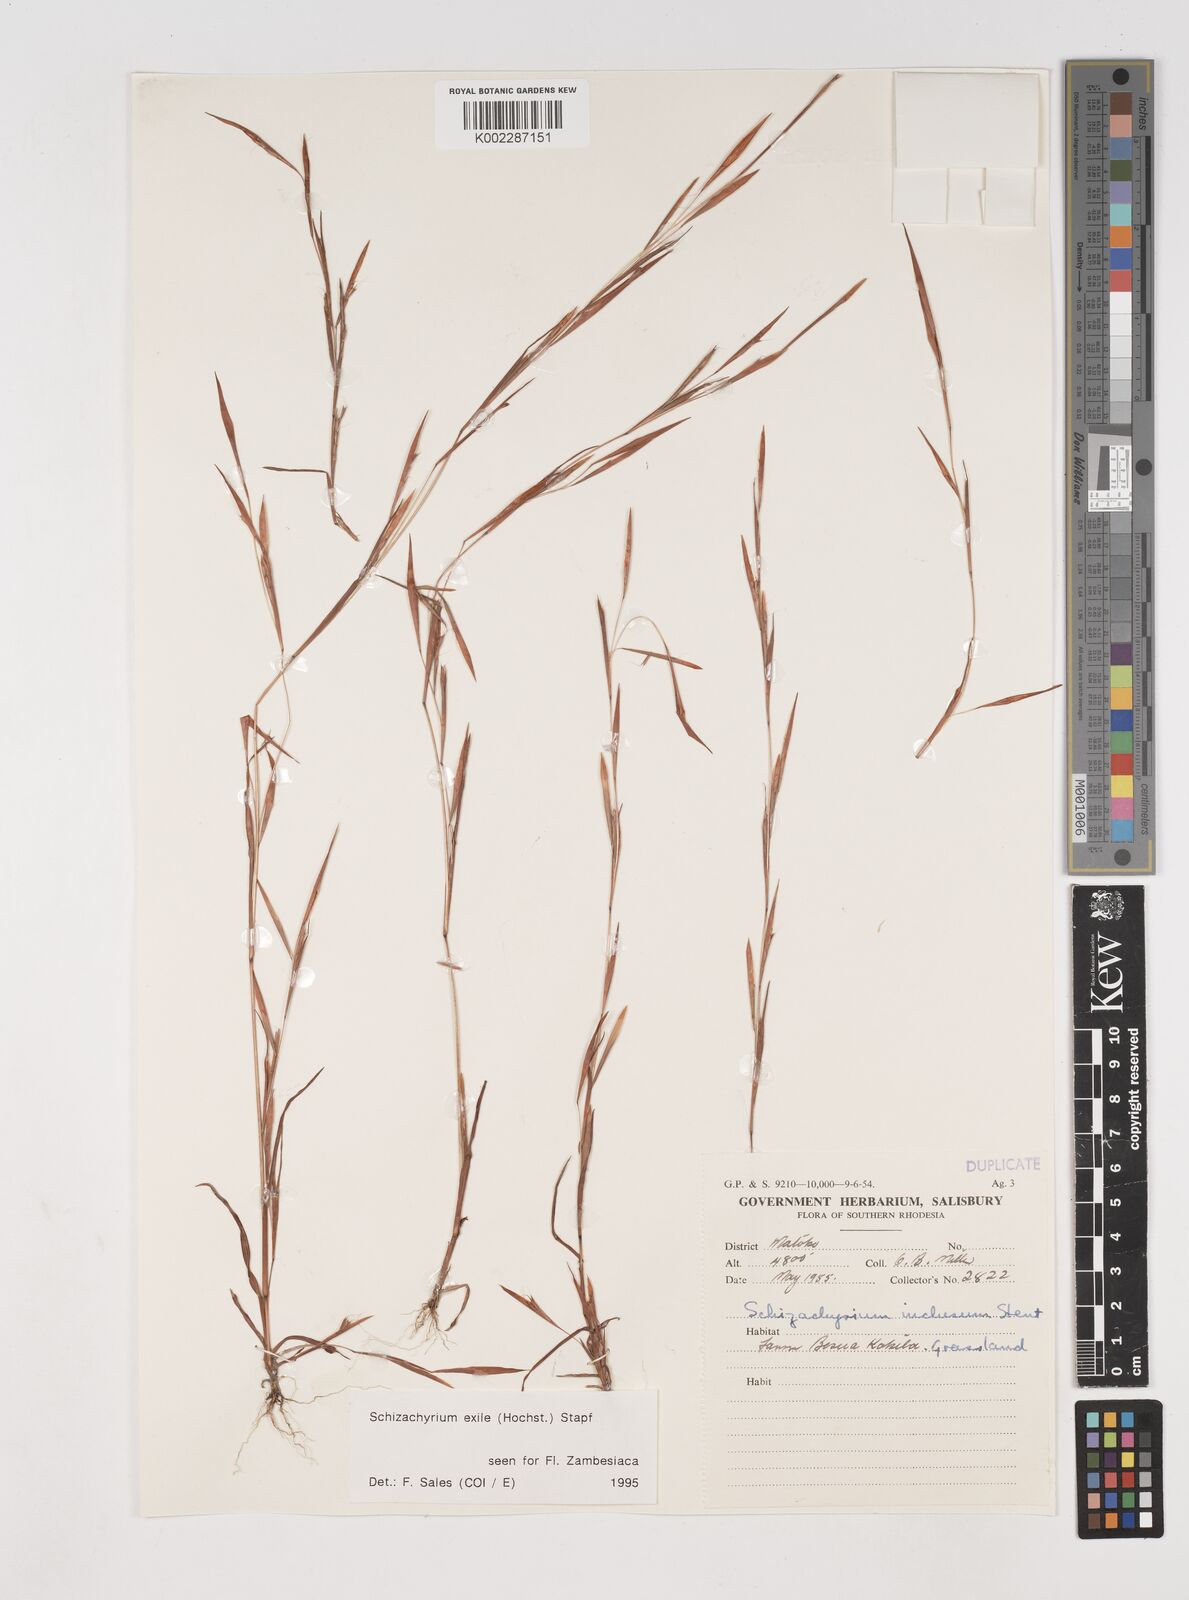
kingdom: Plantae
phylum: Tracheophyta
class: Liliopsida
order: Poales
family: Poaceae
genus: Schizachyrium
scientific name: Schizachyrium exile
